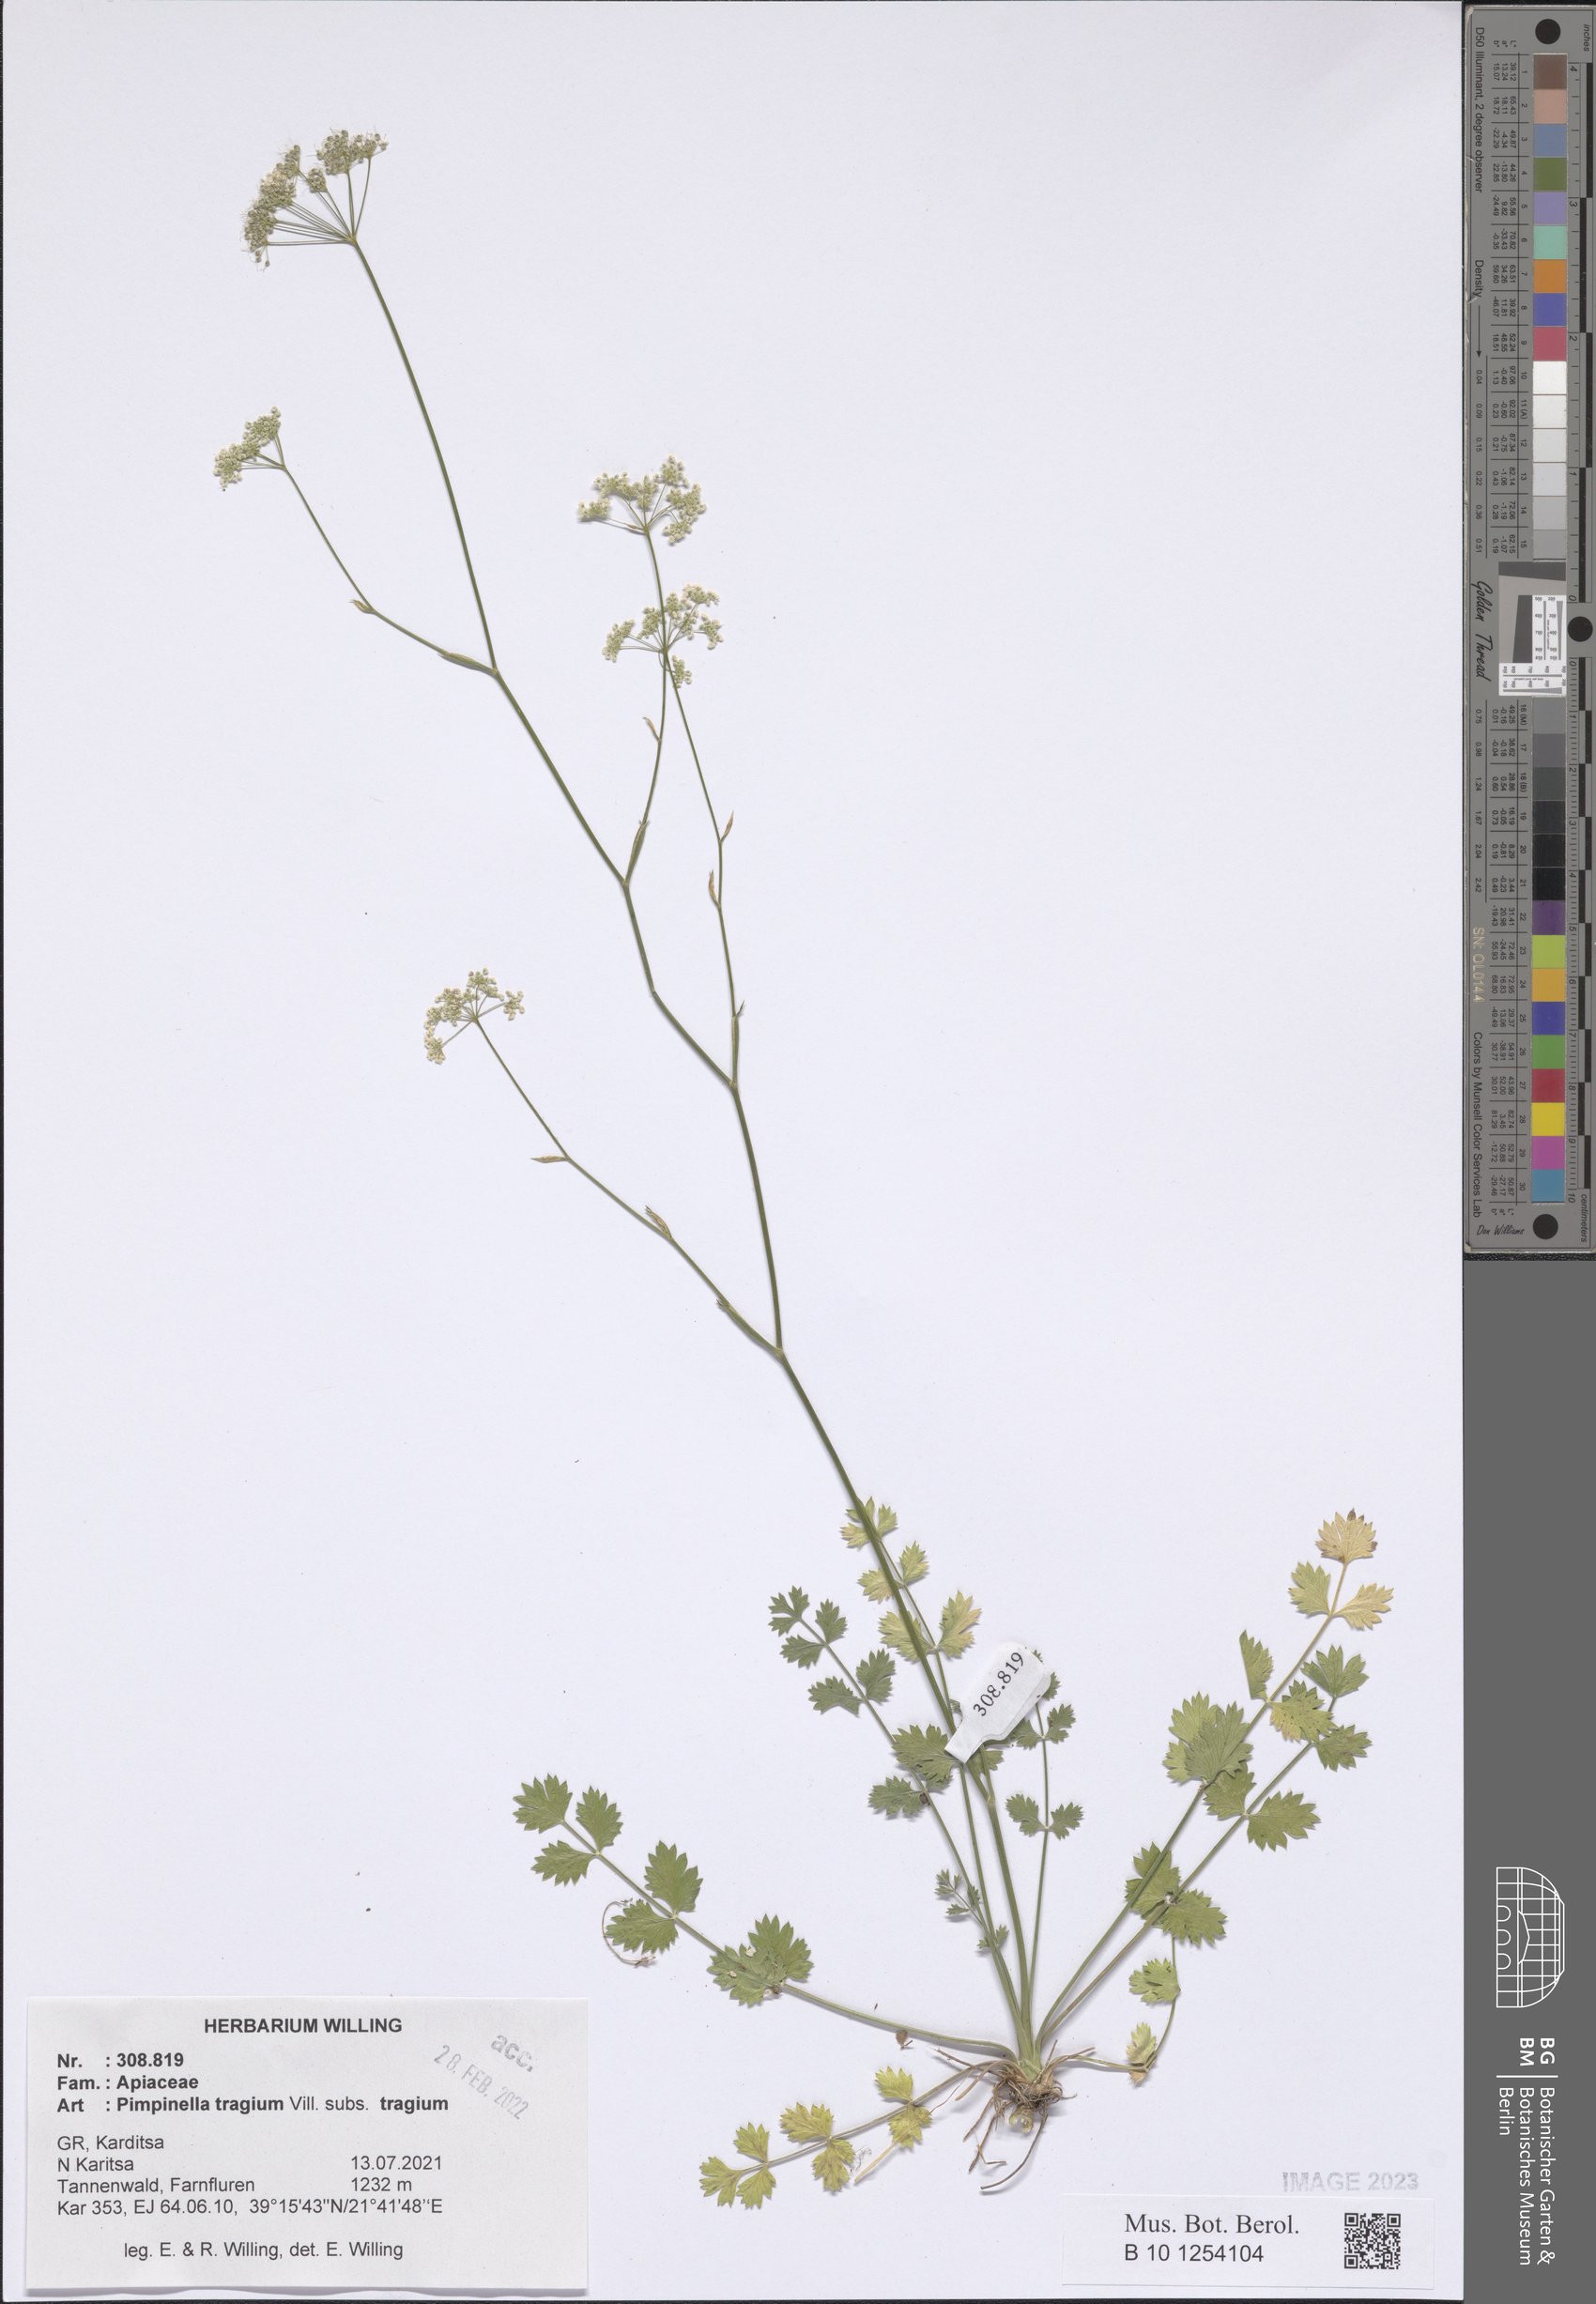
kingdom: Plantae
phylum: Tracheophyta
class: Magnoliopsida
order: Apiales
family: Apiaceae
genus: Pimpinella
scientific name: Pimpinella tragium
